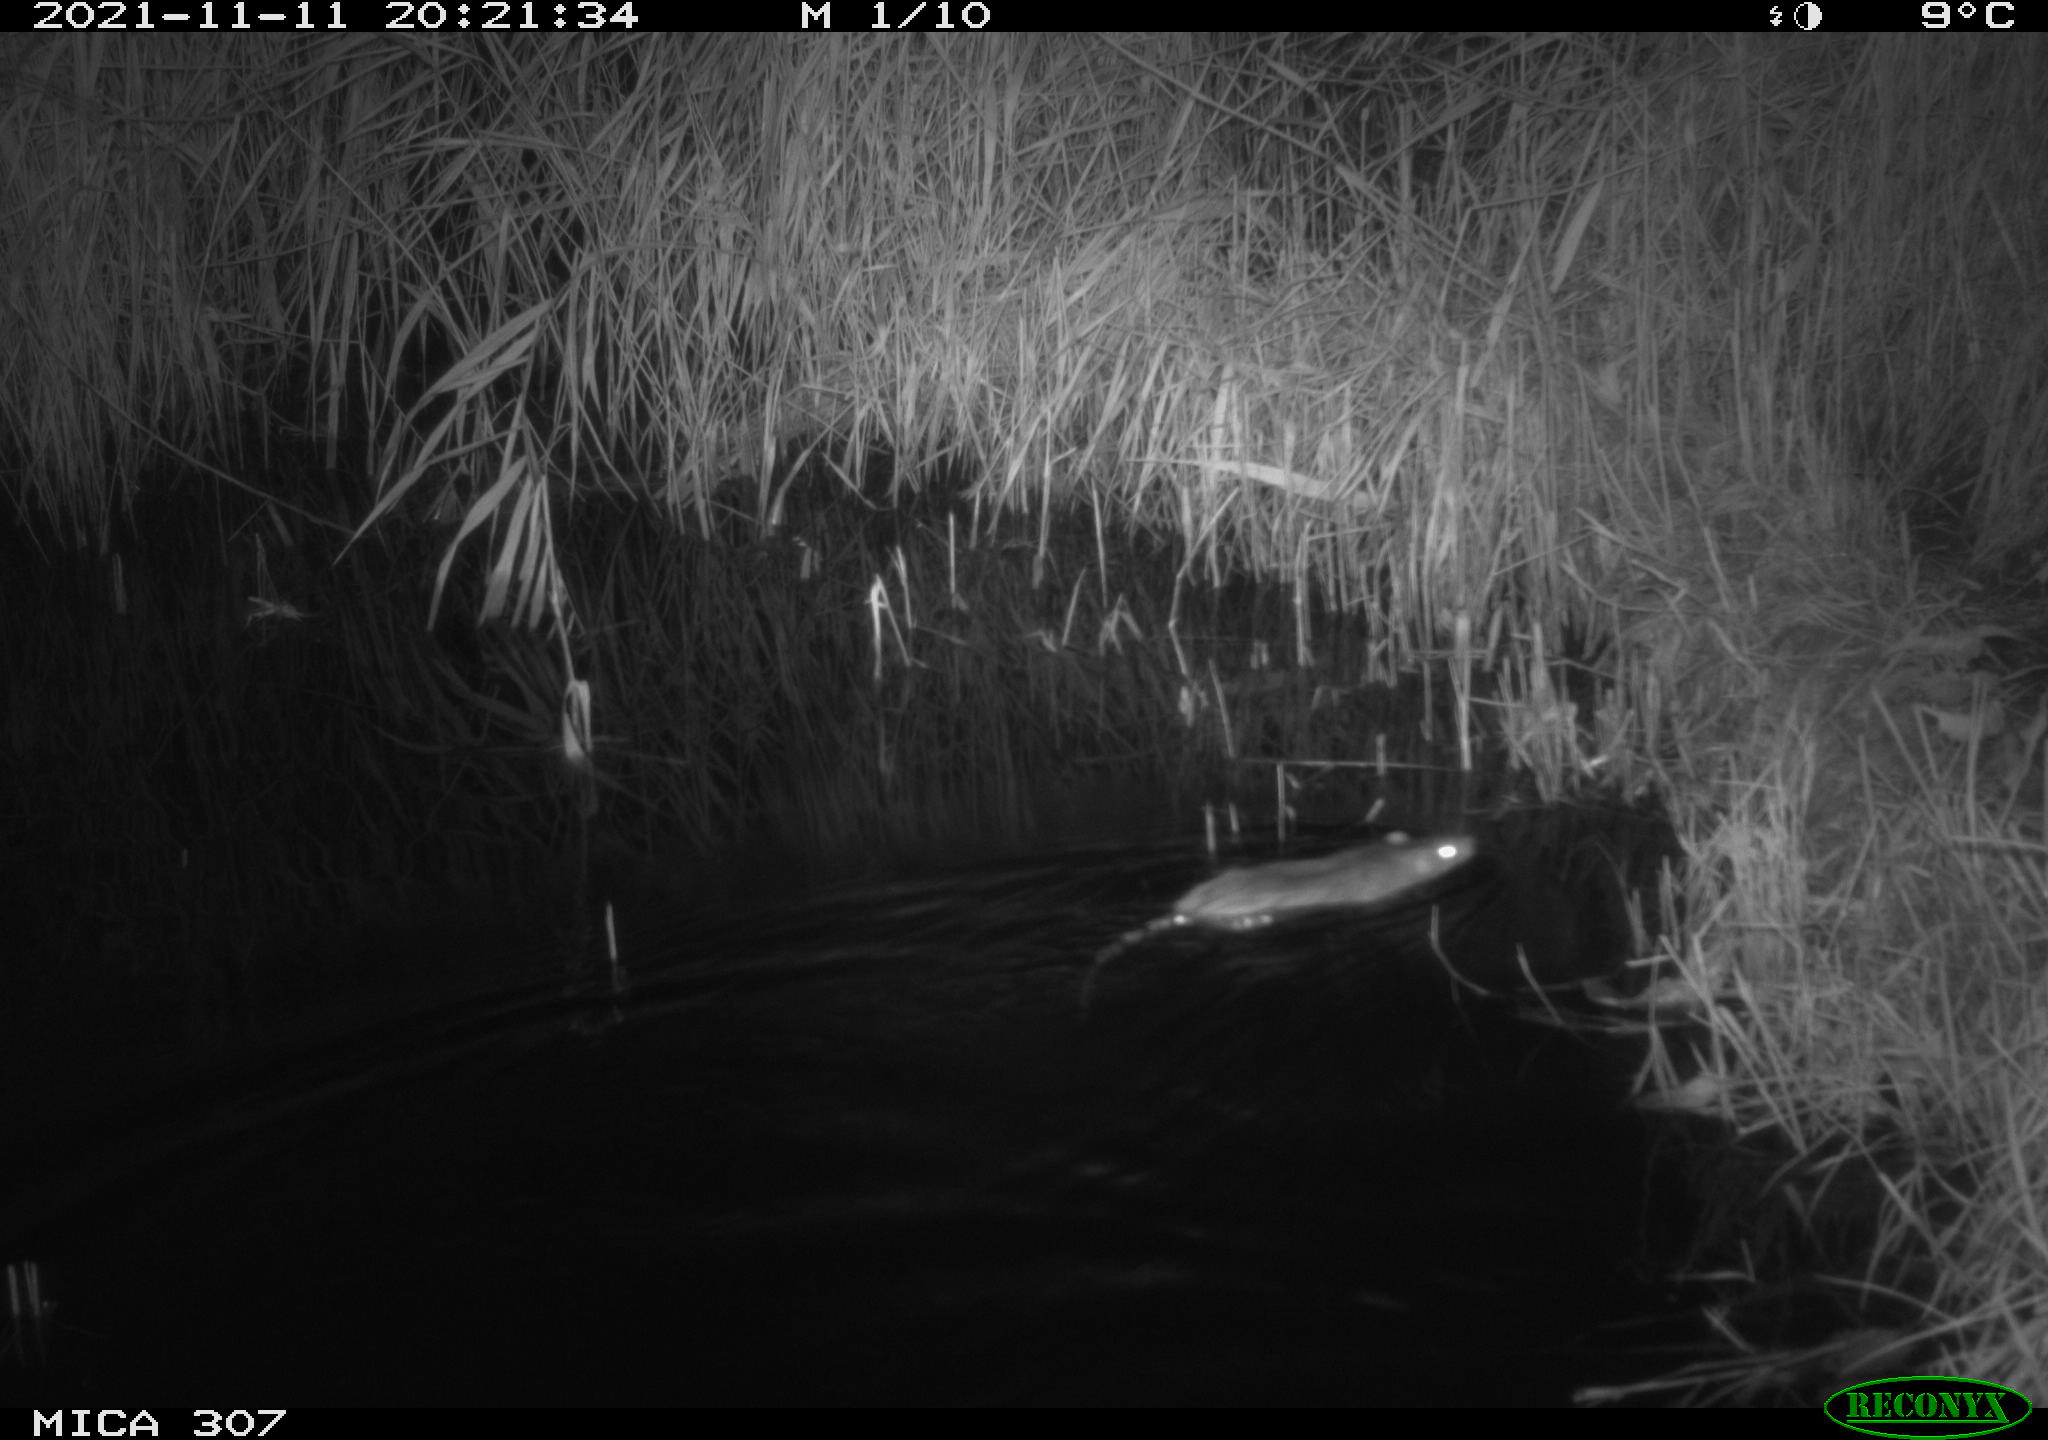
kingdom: Animalia
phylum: Chordata
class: Mammalia
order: Rodentia
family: Muridae
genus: Rattus
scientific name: Rattus norvegicus
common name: Brown rat
